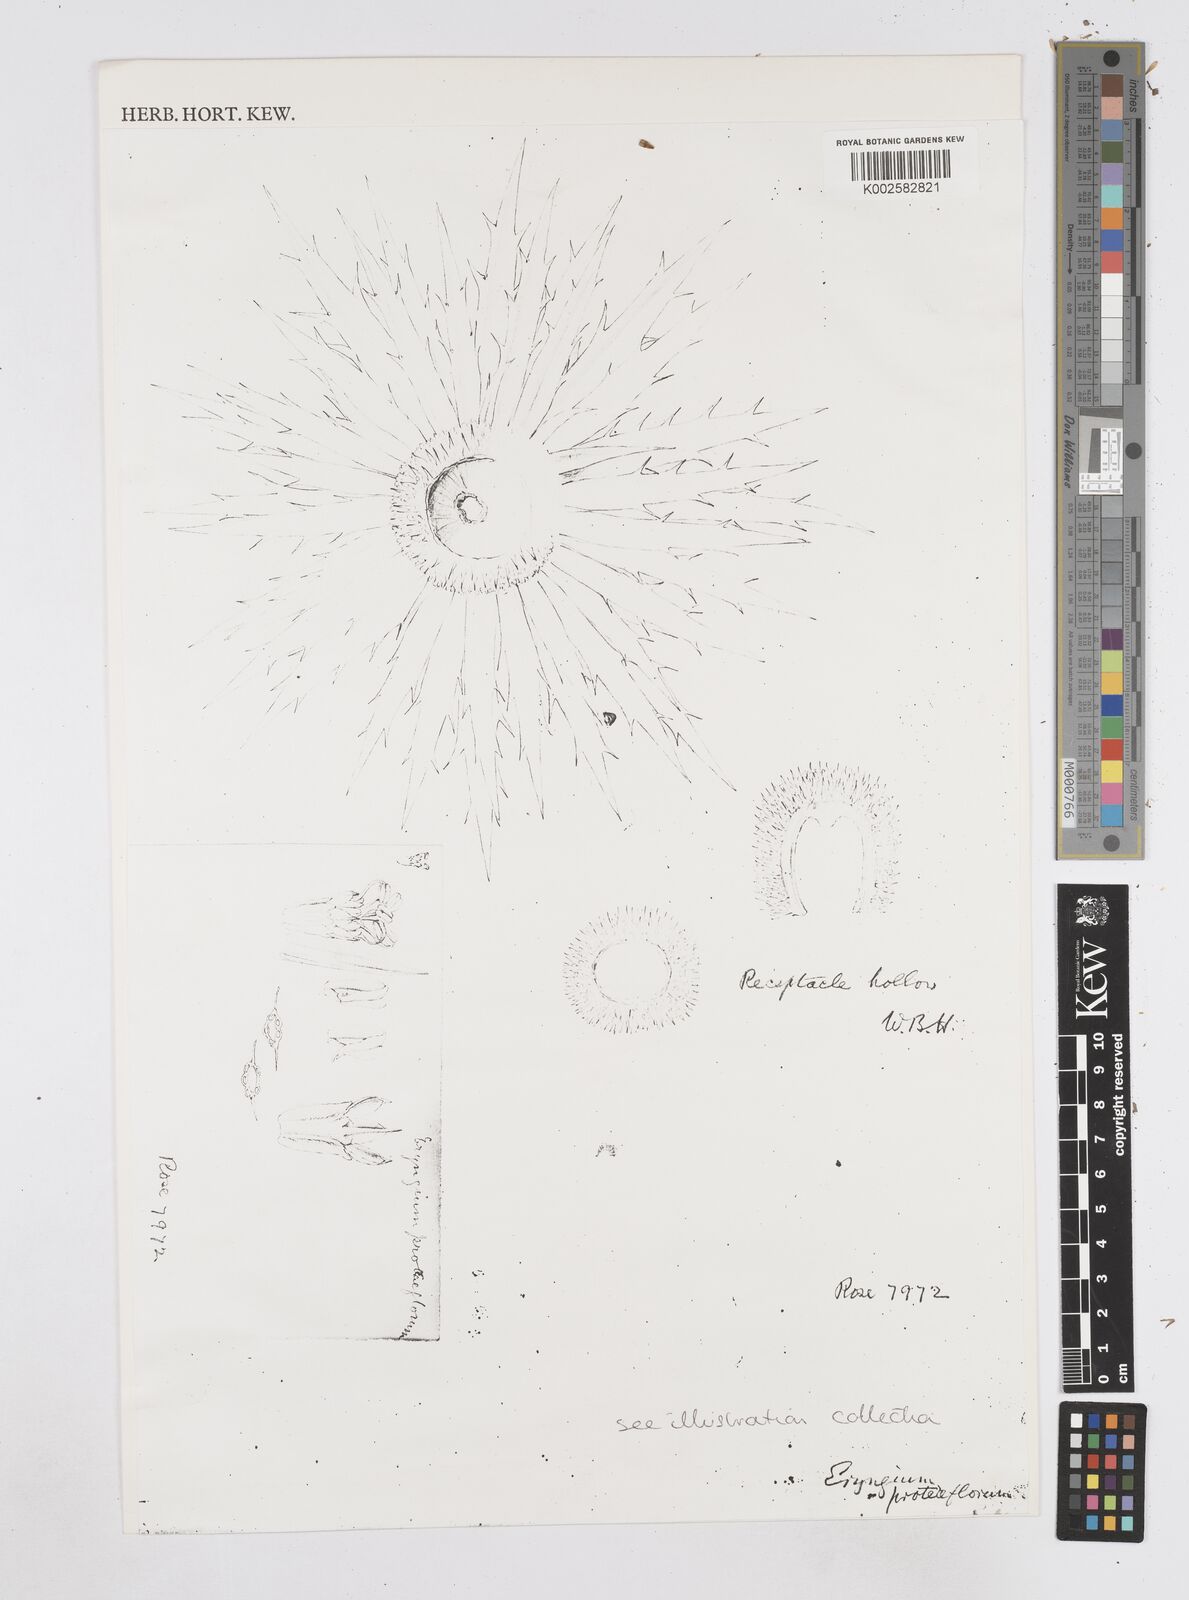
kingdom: Plantae
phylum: Tracheophyta
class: Magnoliopsida
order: Apiales
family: Apiaceae
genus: Eryngium
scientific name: Eryngium proteiflorum
